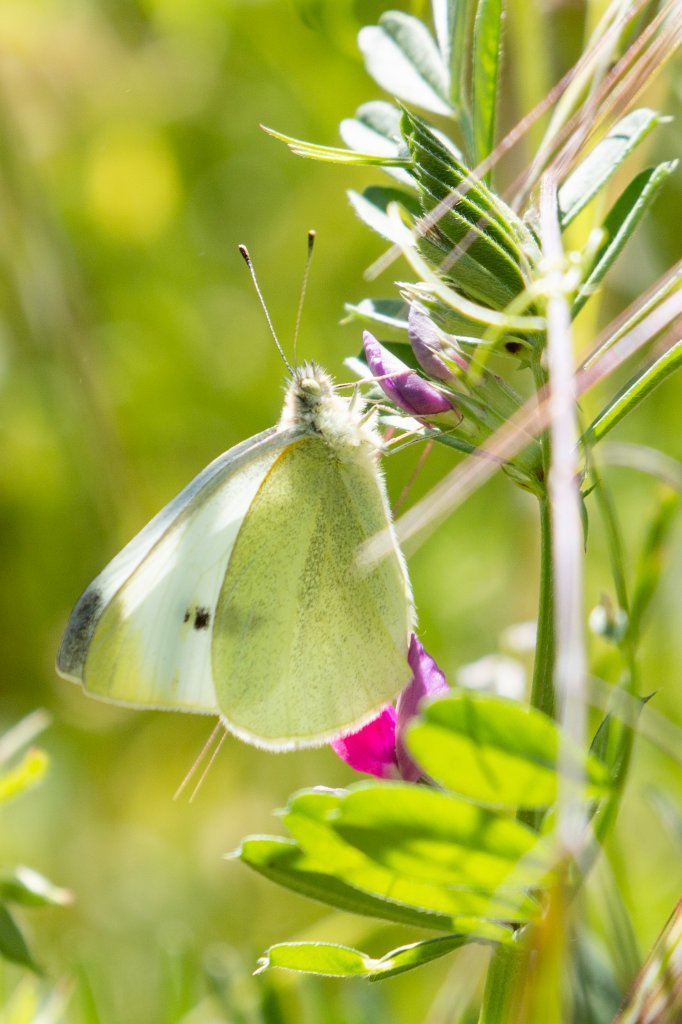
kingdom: Animalia
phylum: Arthropoda
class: Insecta
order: Lepidoptera
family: Pieridae
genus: Pieris
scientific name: Pieris rapae
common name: Cabbage White
